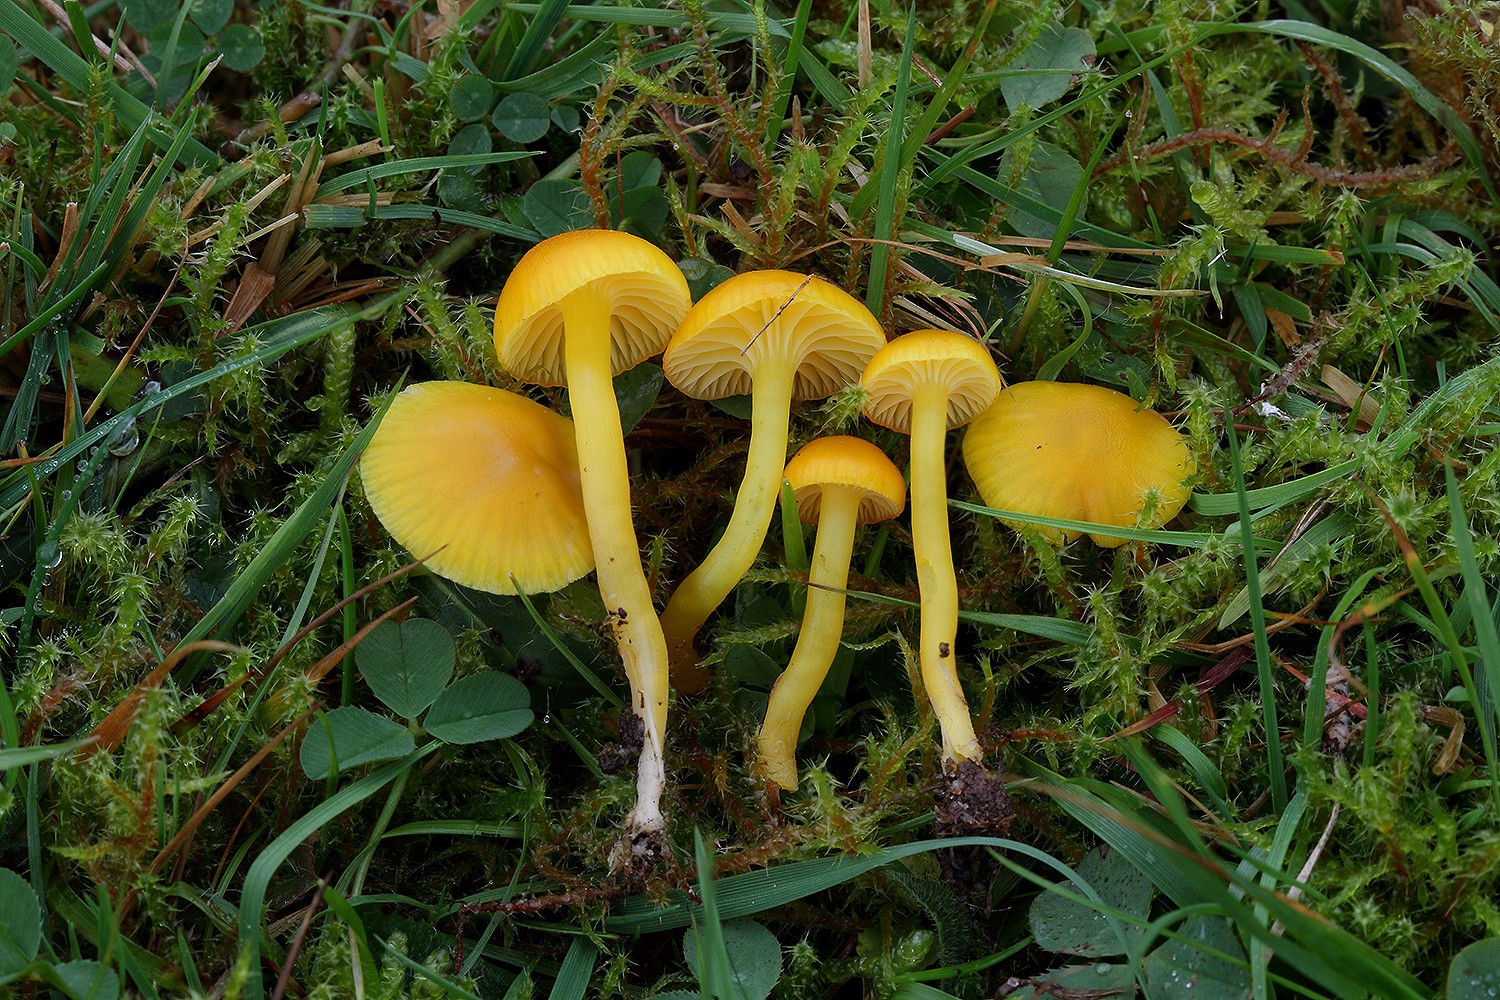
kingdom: Fungi
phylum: Basidiomycota
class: Agaricomycetes
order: Agaricales
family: Hygrophoraceae
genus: Hygrocybe
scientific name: Hygrocybe ceracea
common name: voksgul vokshat
